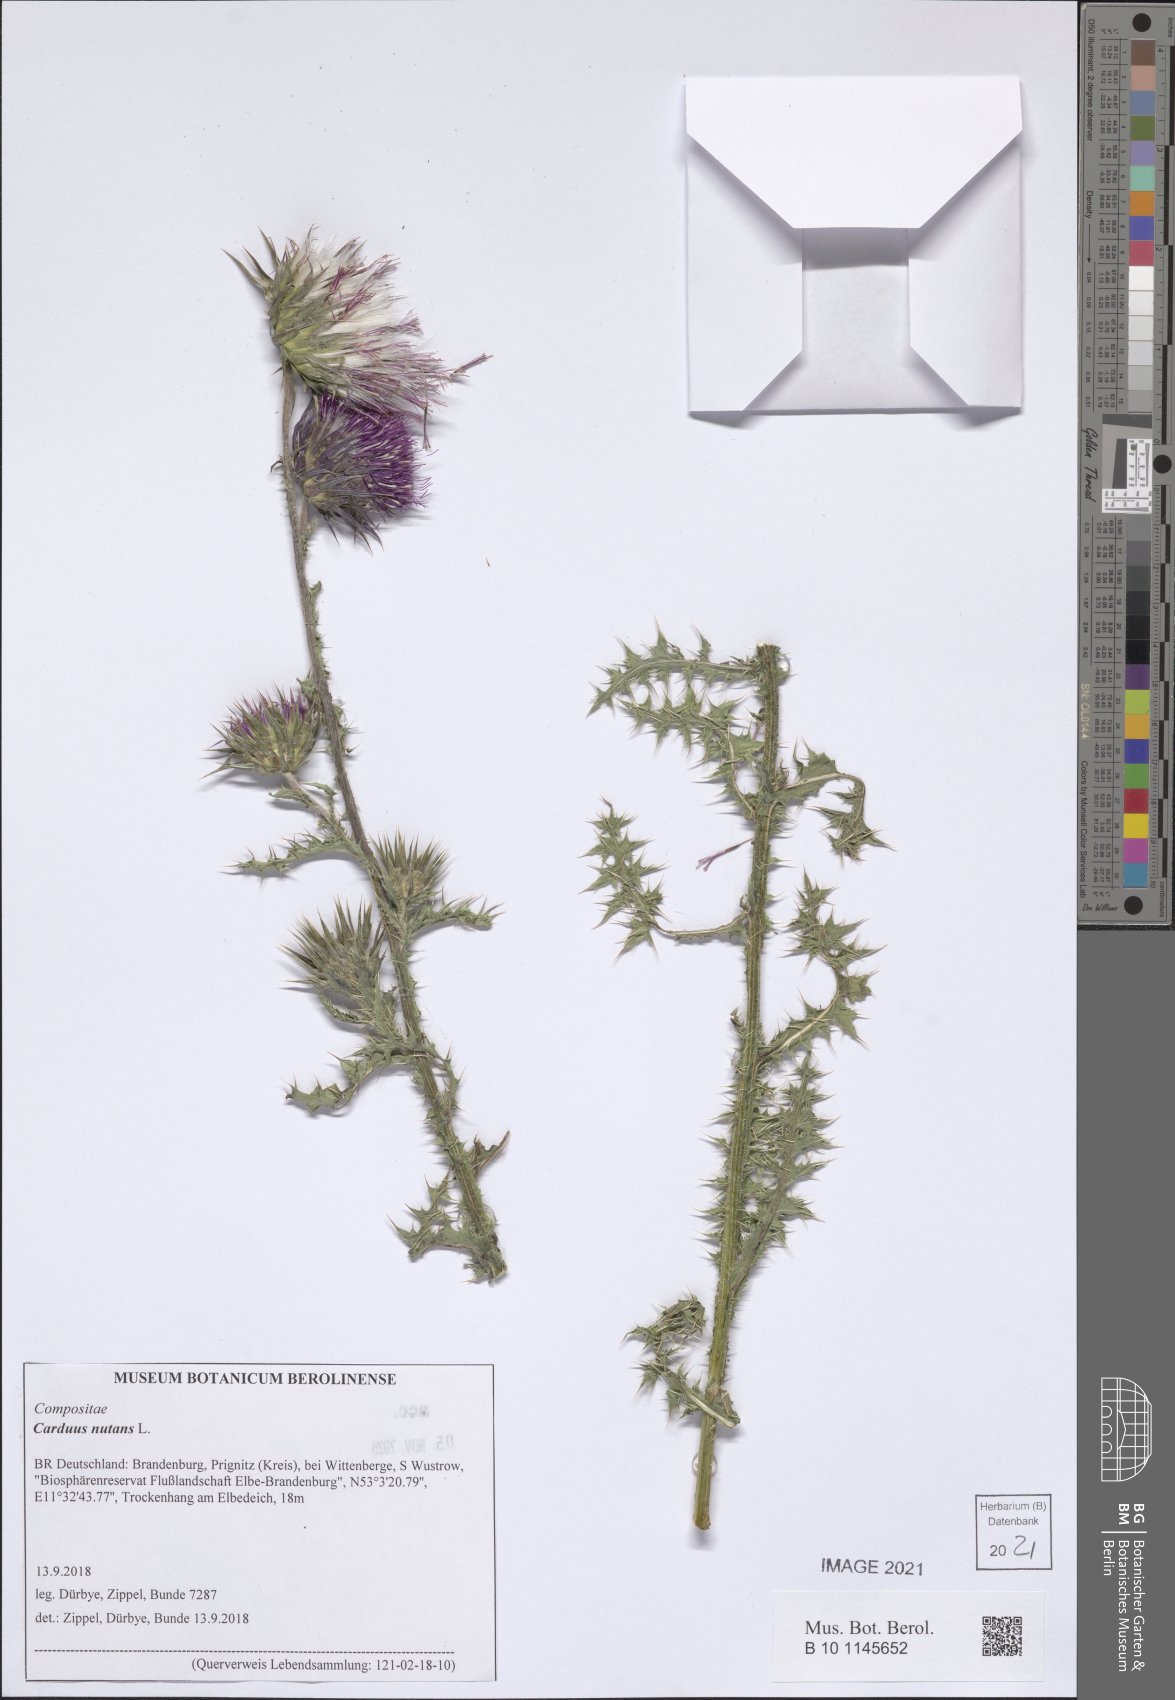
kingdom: Plantae
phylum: Tracheophyta
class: Magnoliopsida
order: Asterales
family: Asteraceae
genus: Carduus
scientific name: Carduus nutans
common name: Musk thistle
